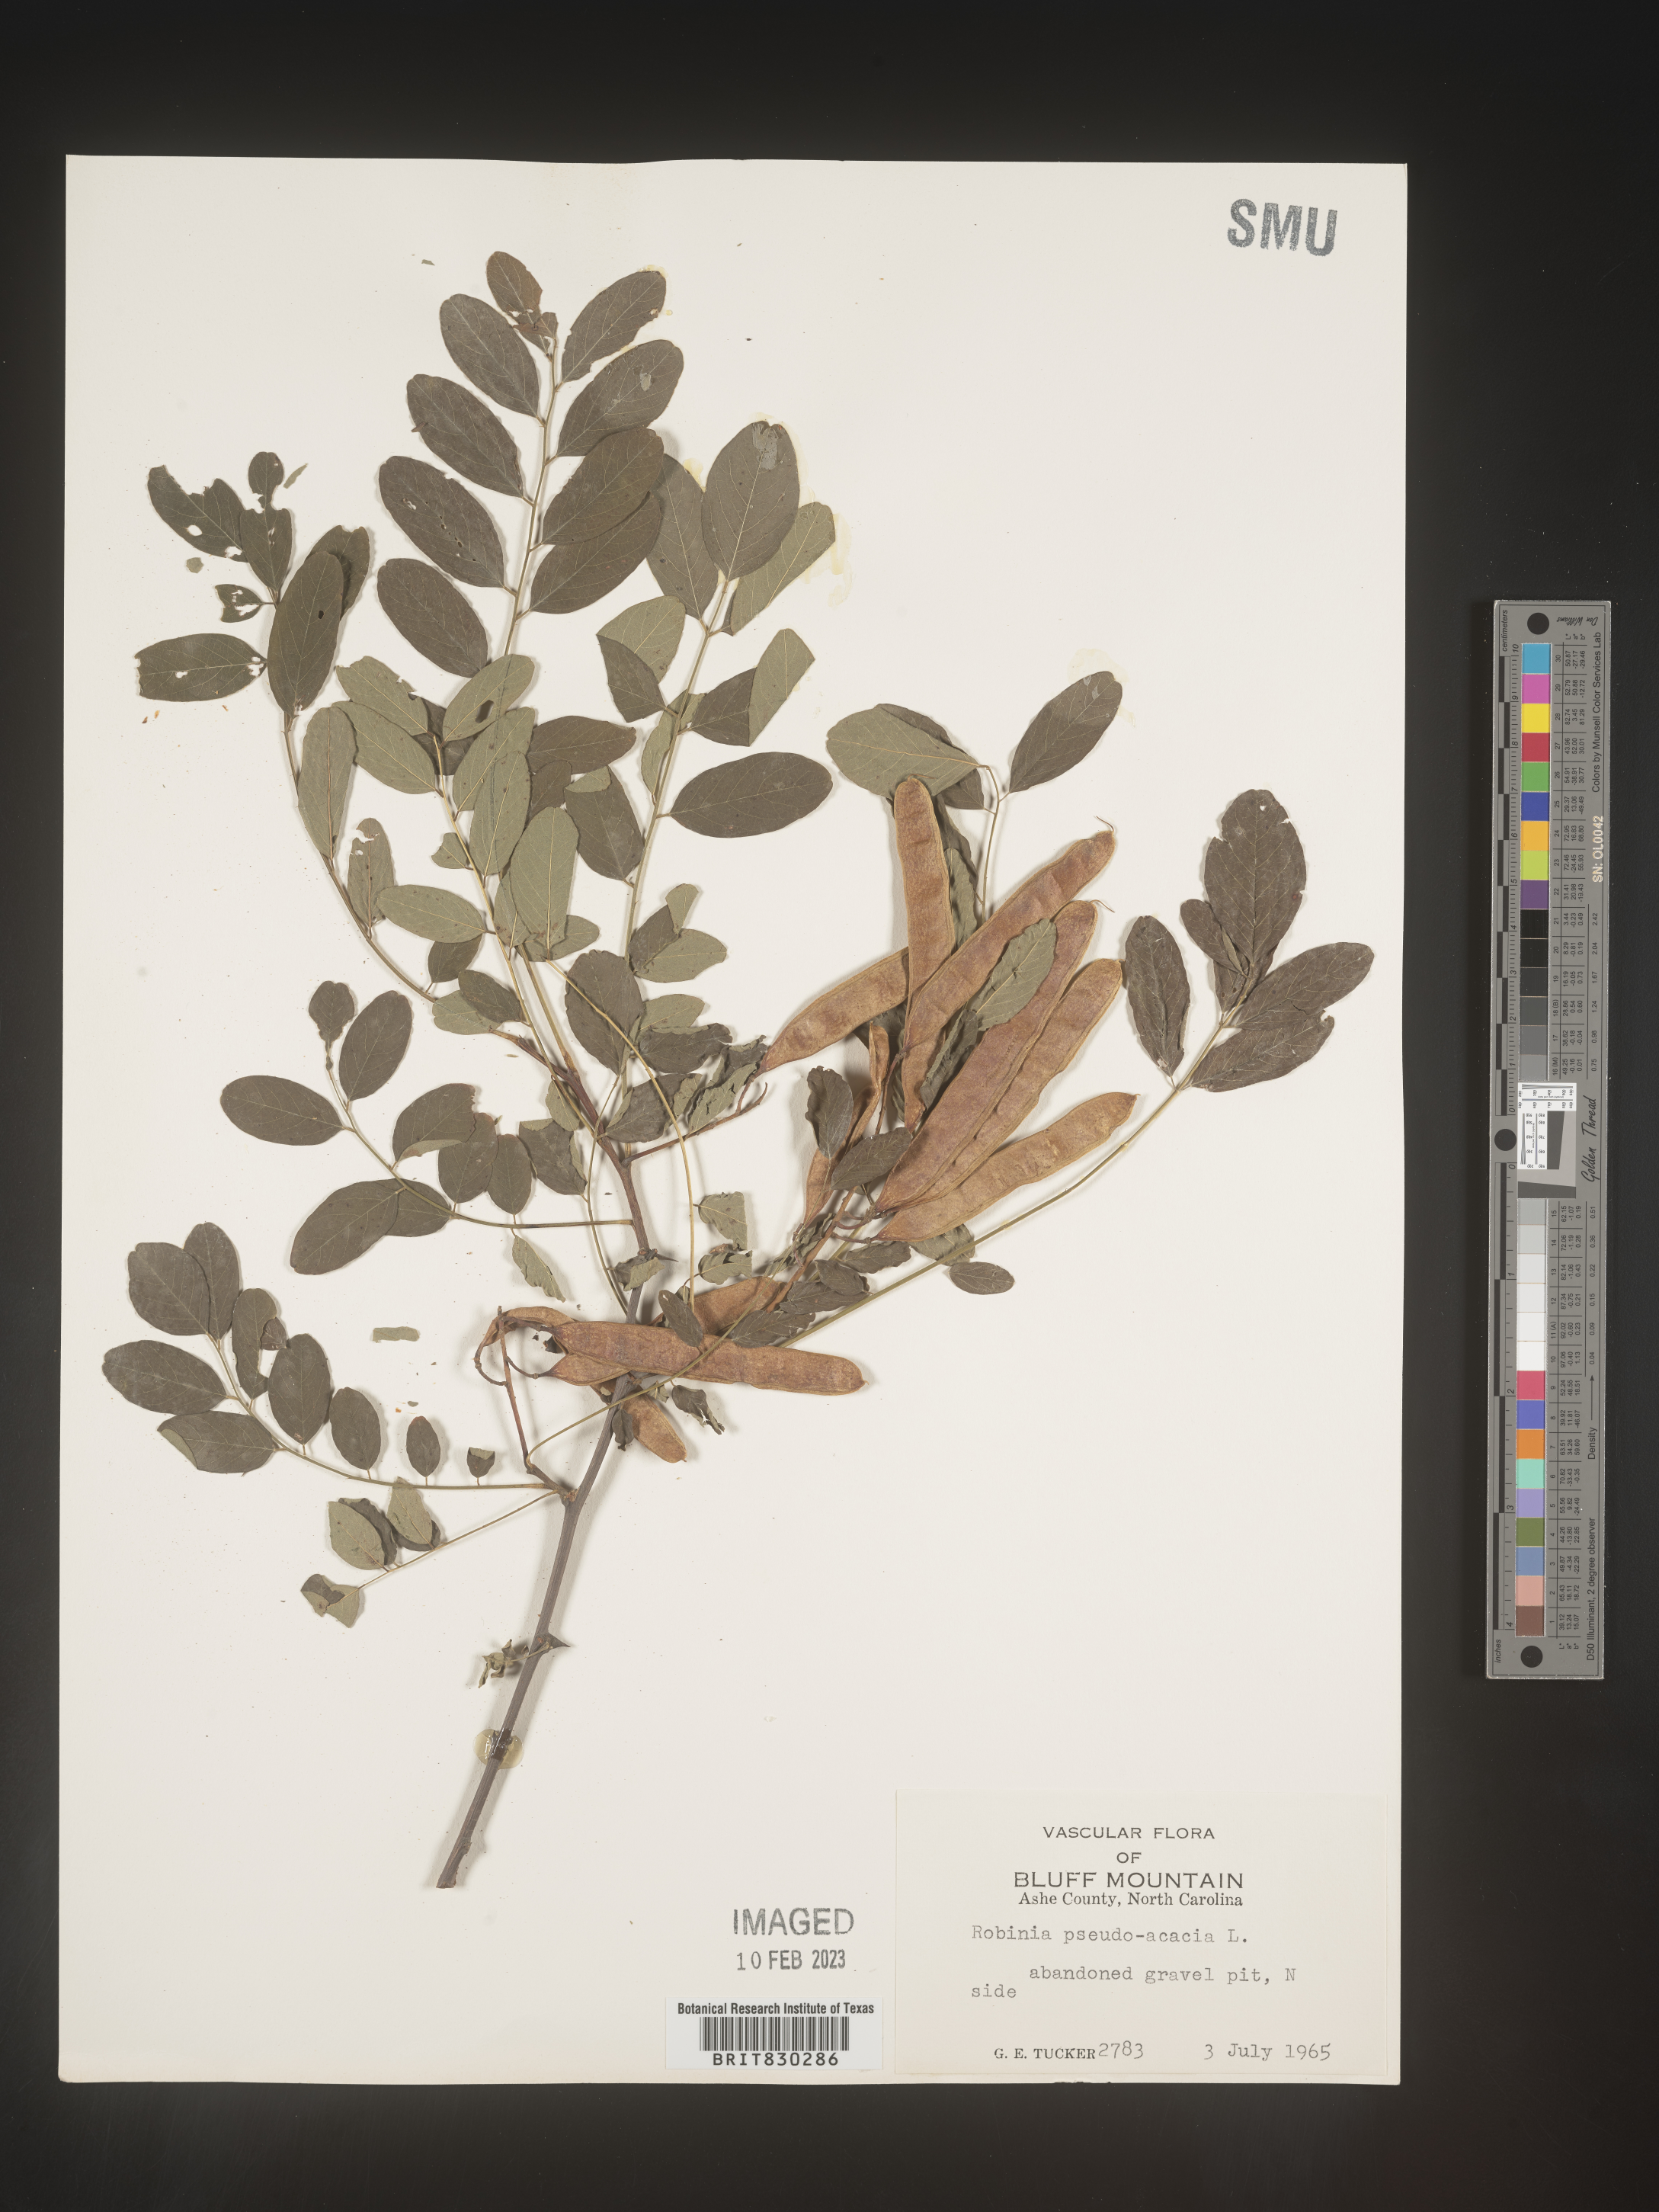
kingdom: Plantae
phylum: Tracheophyta
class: Magnoliopsida
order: Fabales
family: Fabaceae
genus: Robinia
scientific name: Robinia pseudoacacia
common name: Black locust
